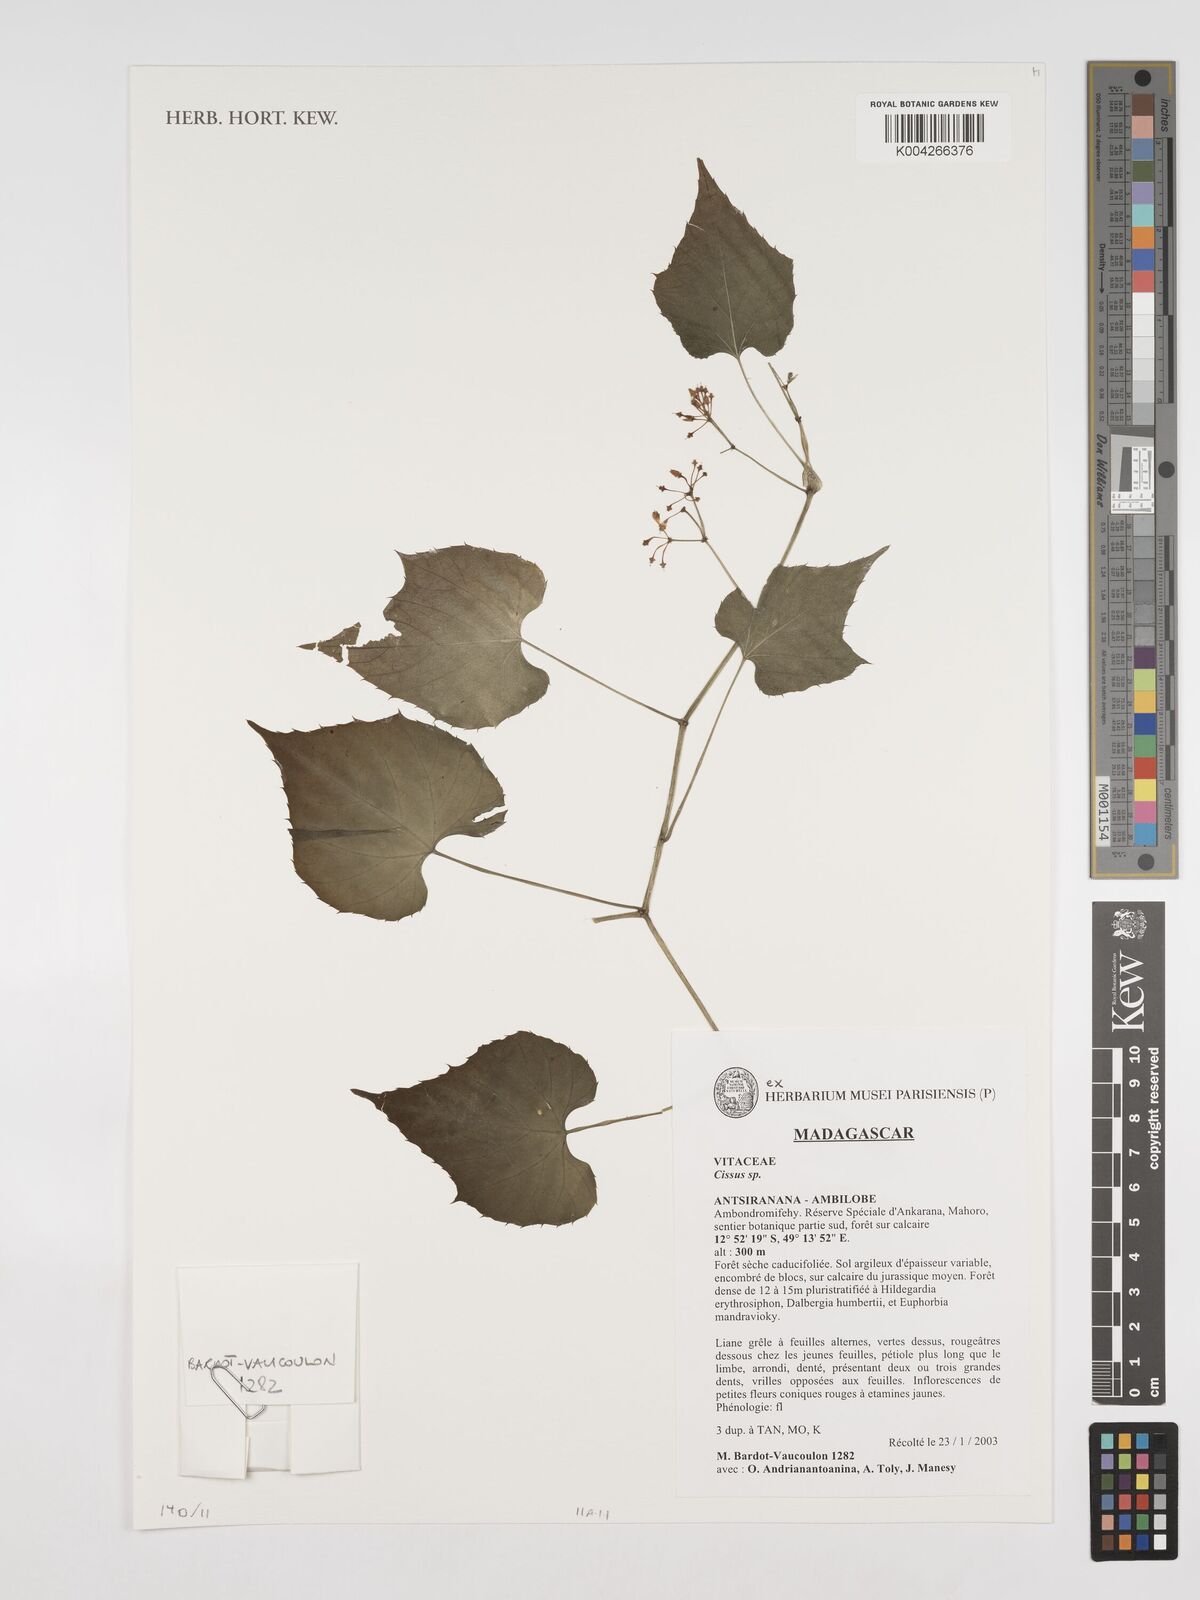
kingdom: Plantae
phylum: Tracheophyta
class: Magnoliopsida
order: Vitales
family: Vitaceae
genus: Cissus
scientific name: Cissus
